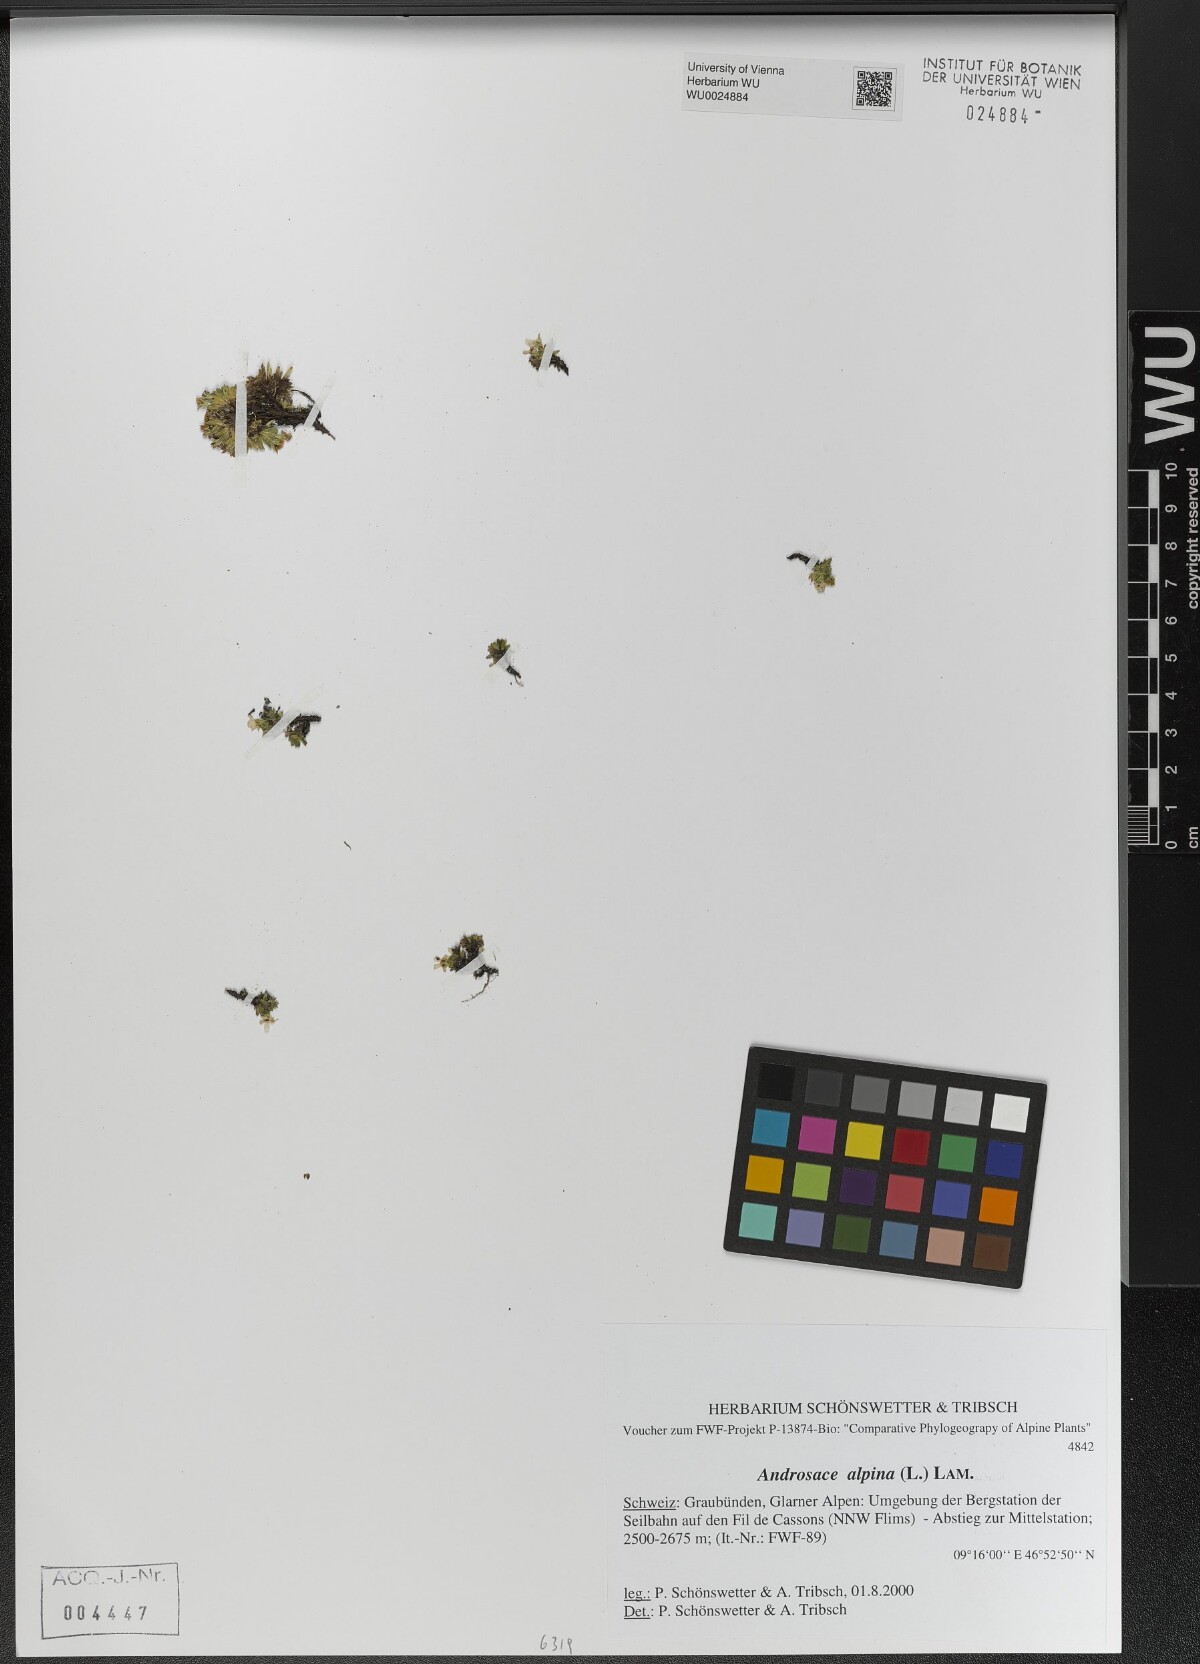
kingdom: Plantae
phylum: Tracheophyta
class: Magnoliopsida
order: Ericales
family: Primulaceae
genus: Androsace
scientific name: Androsace alpina
